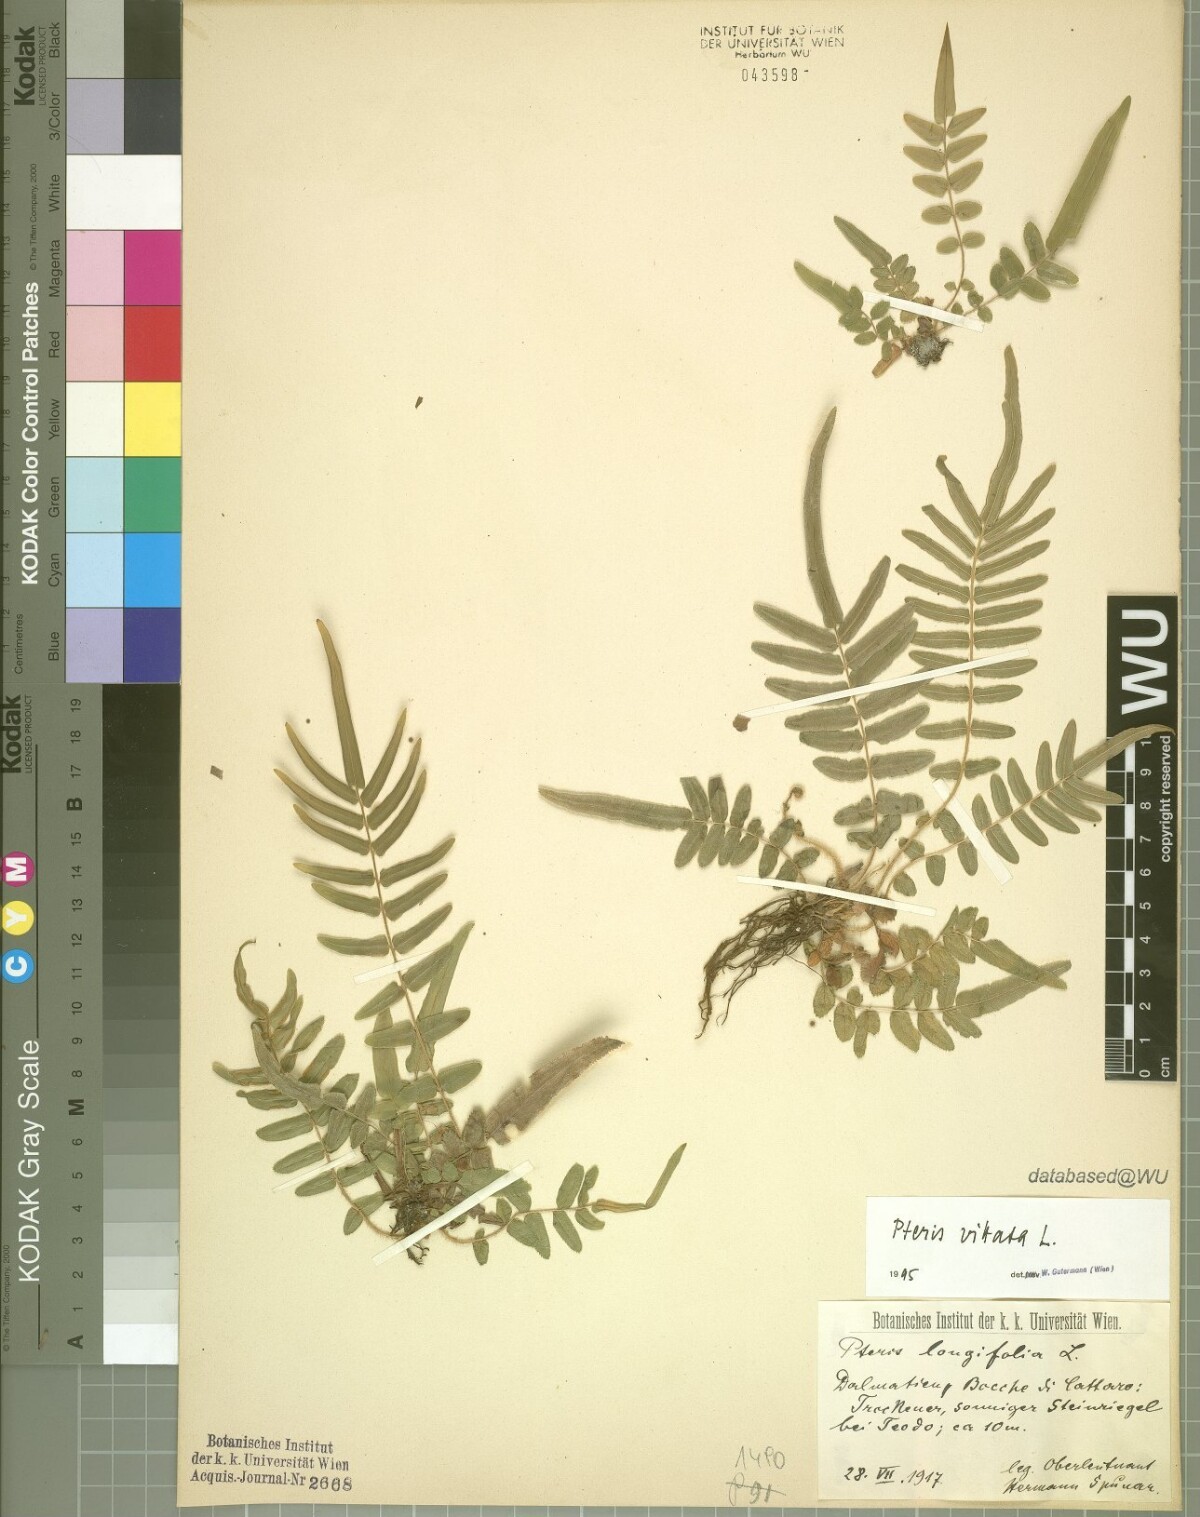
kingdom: Plantae
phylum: Tracheophyta
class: Polypodiopsida
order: Polypodiales
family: Pteridaceae
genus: Pteris
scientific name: Pteris vittata
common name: Ladder brake
